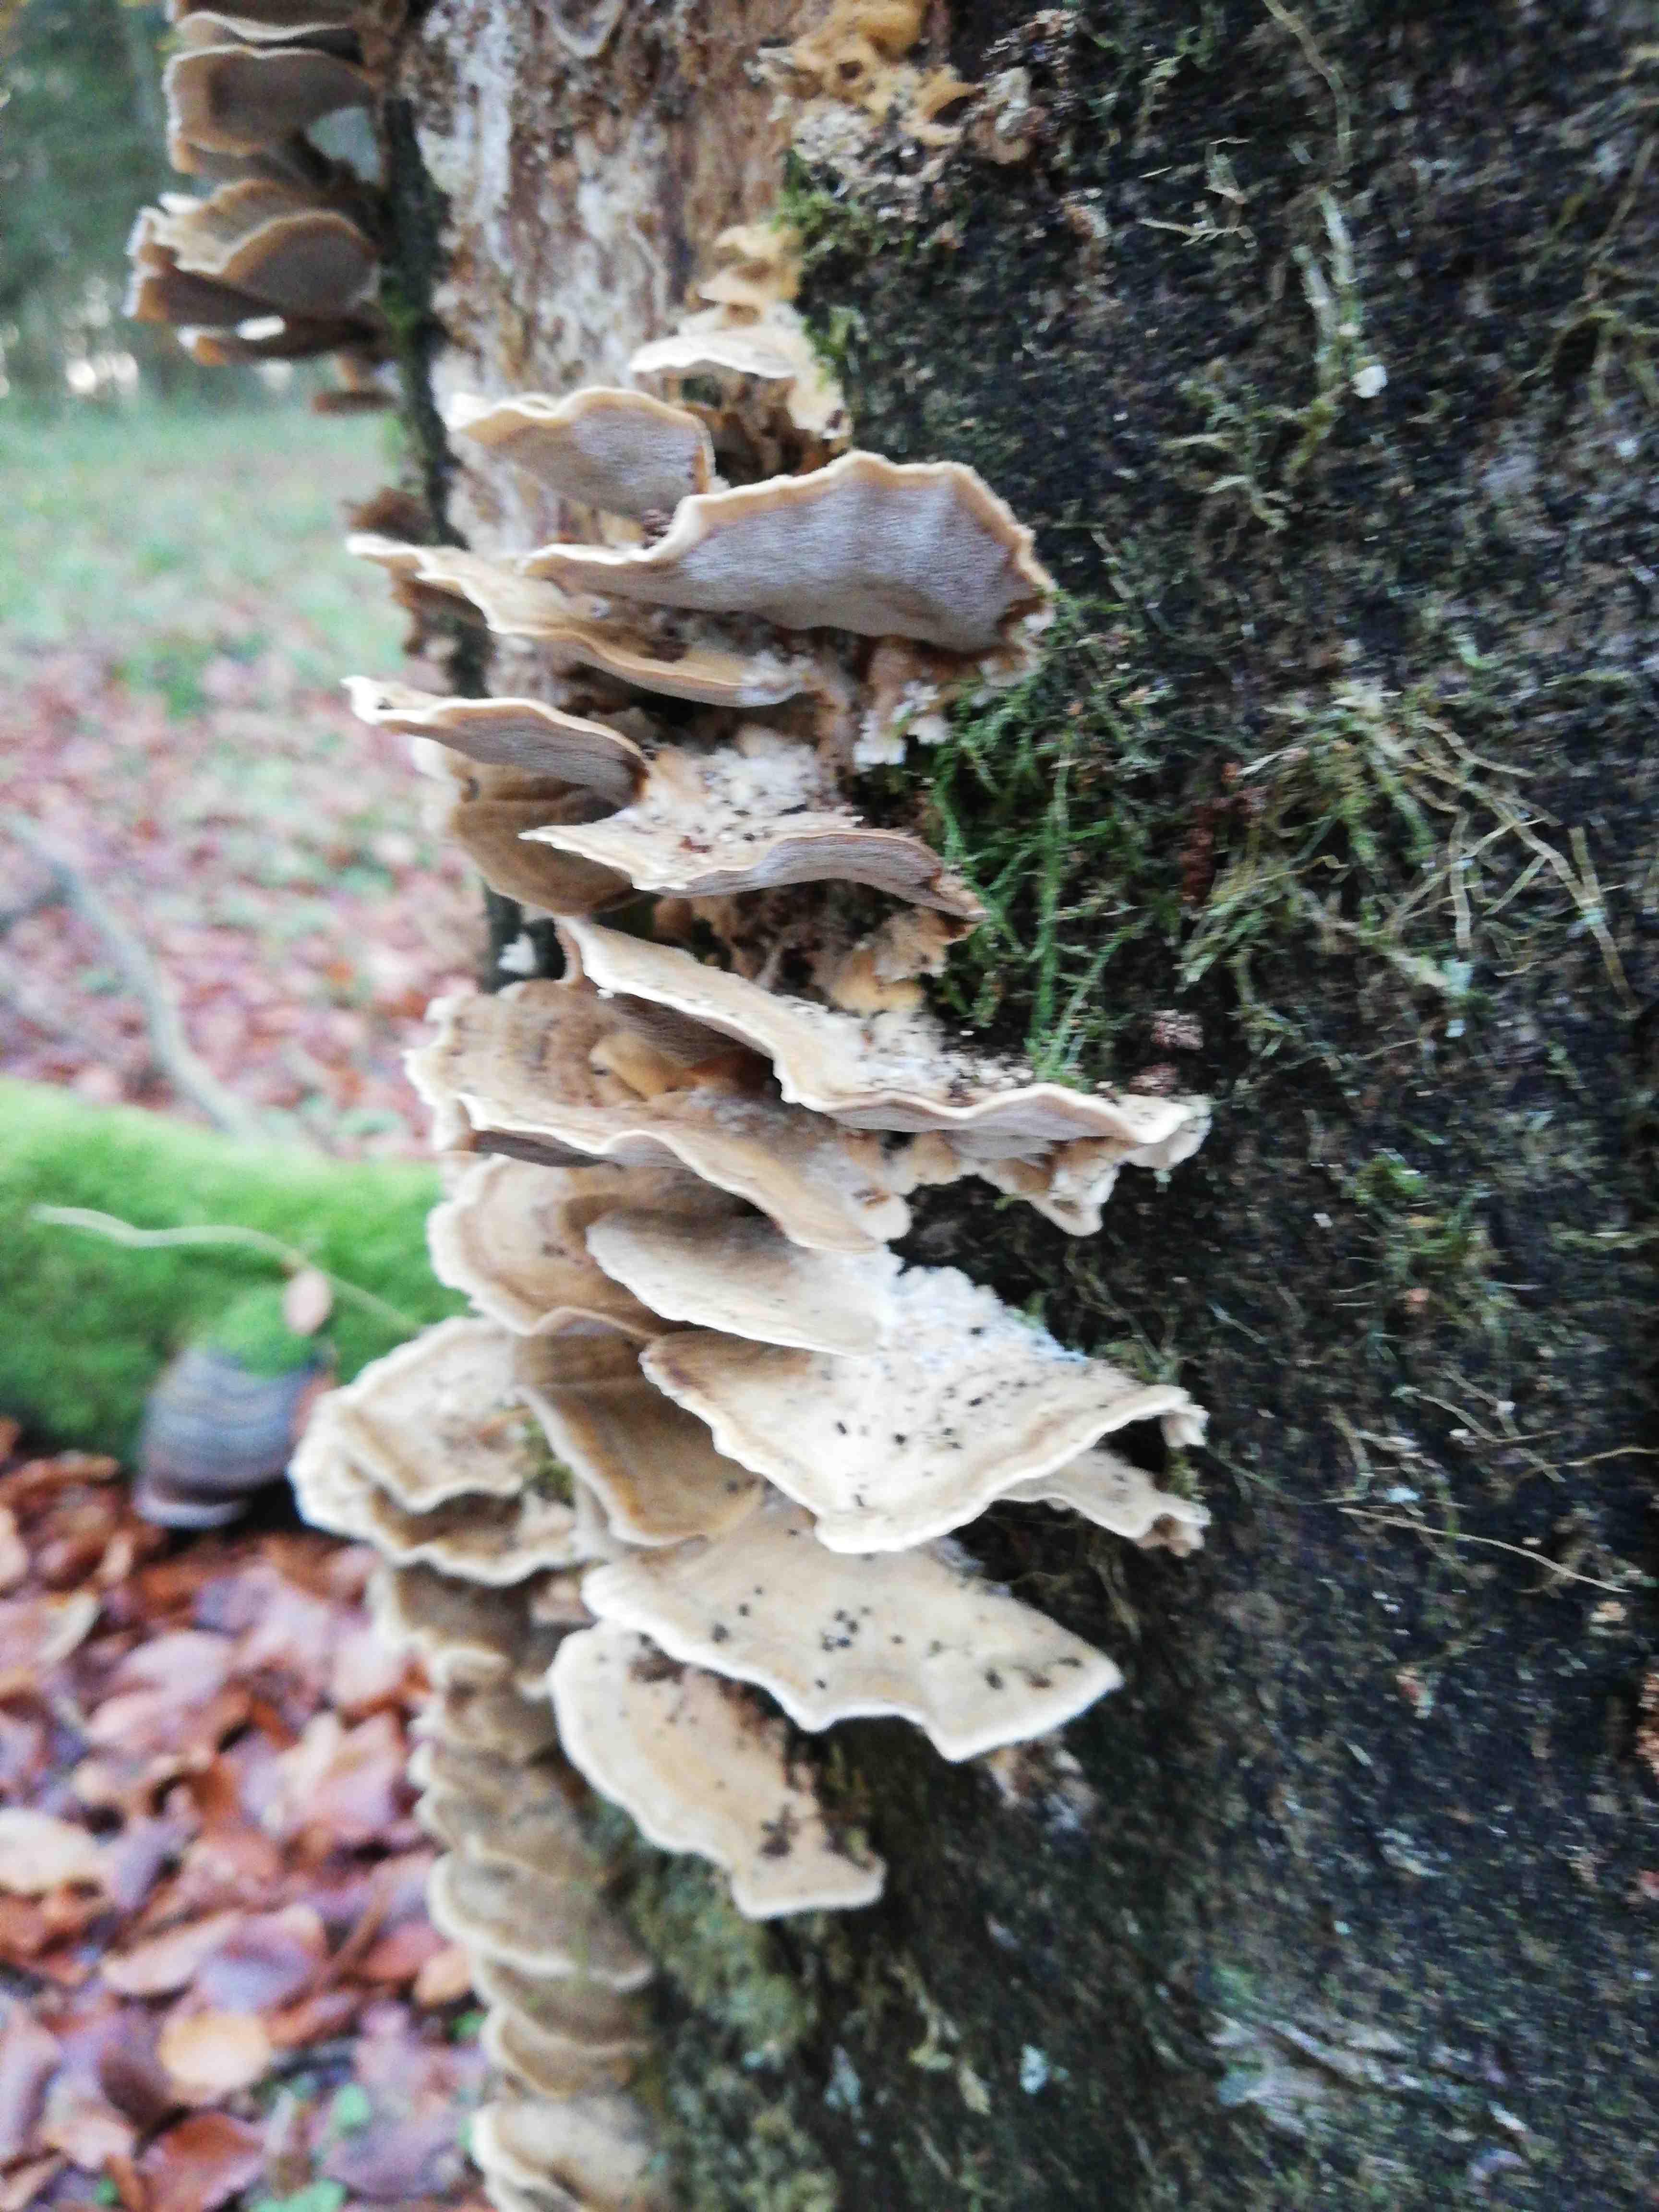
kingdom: Fungi
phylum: Basidiomycota
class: Agaricomycetes
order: Polyporales
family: Phanerochaetaceae
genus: Bjerkandera
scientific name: Bjerkandera adusta
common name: sveden sodporesvamp
